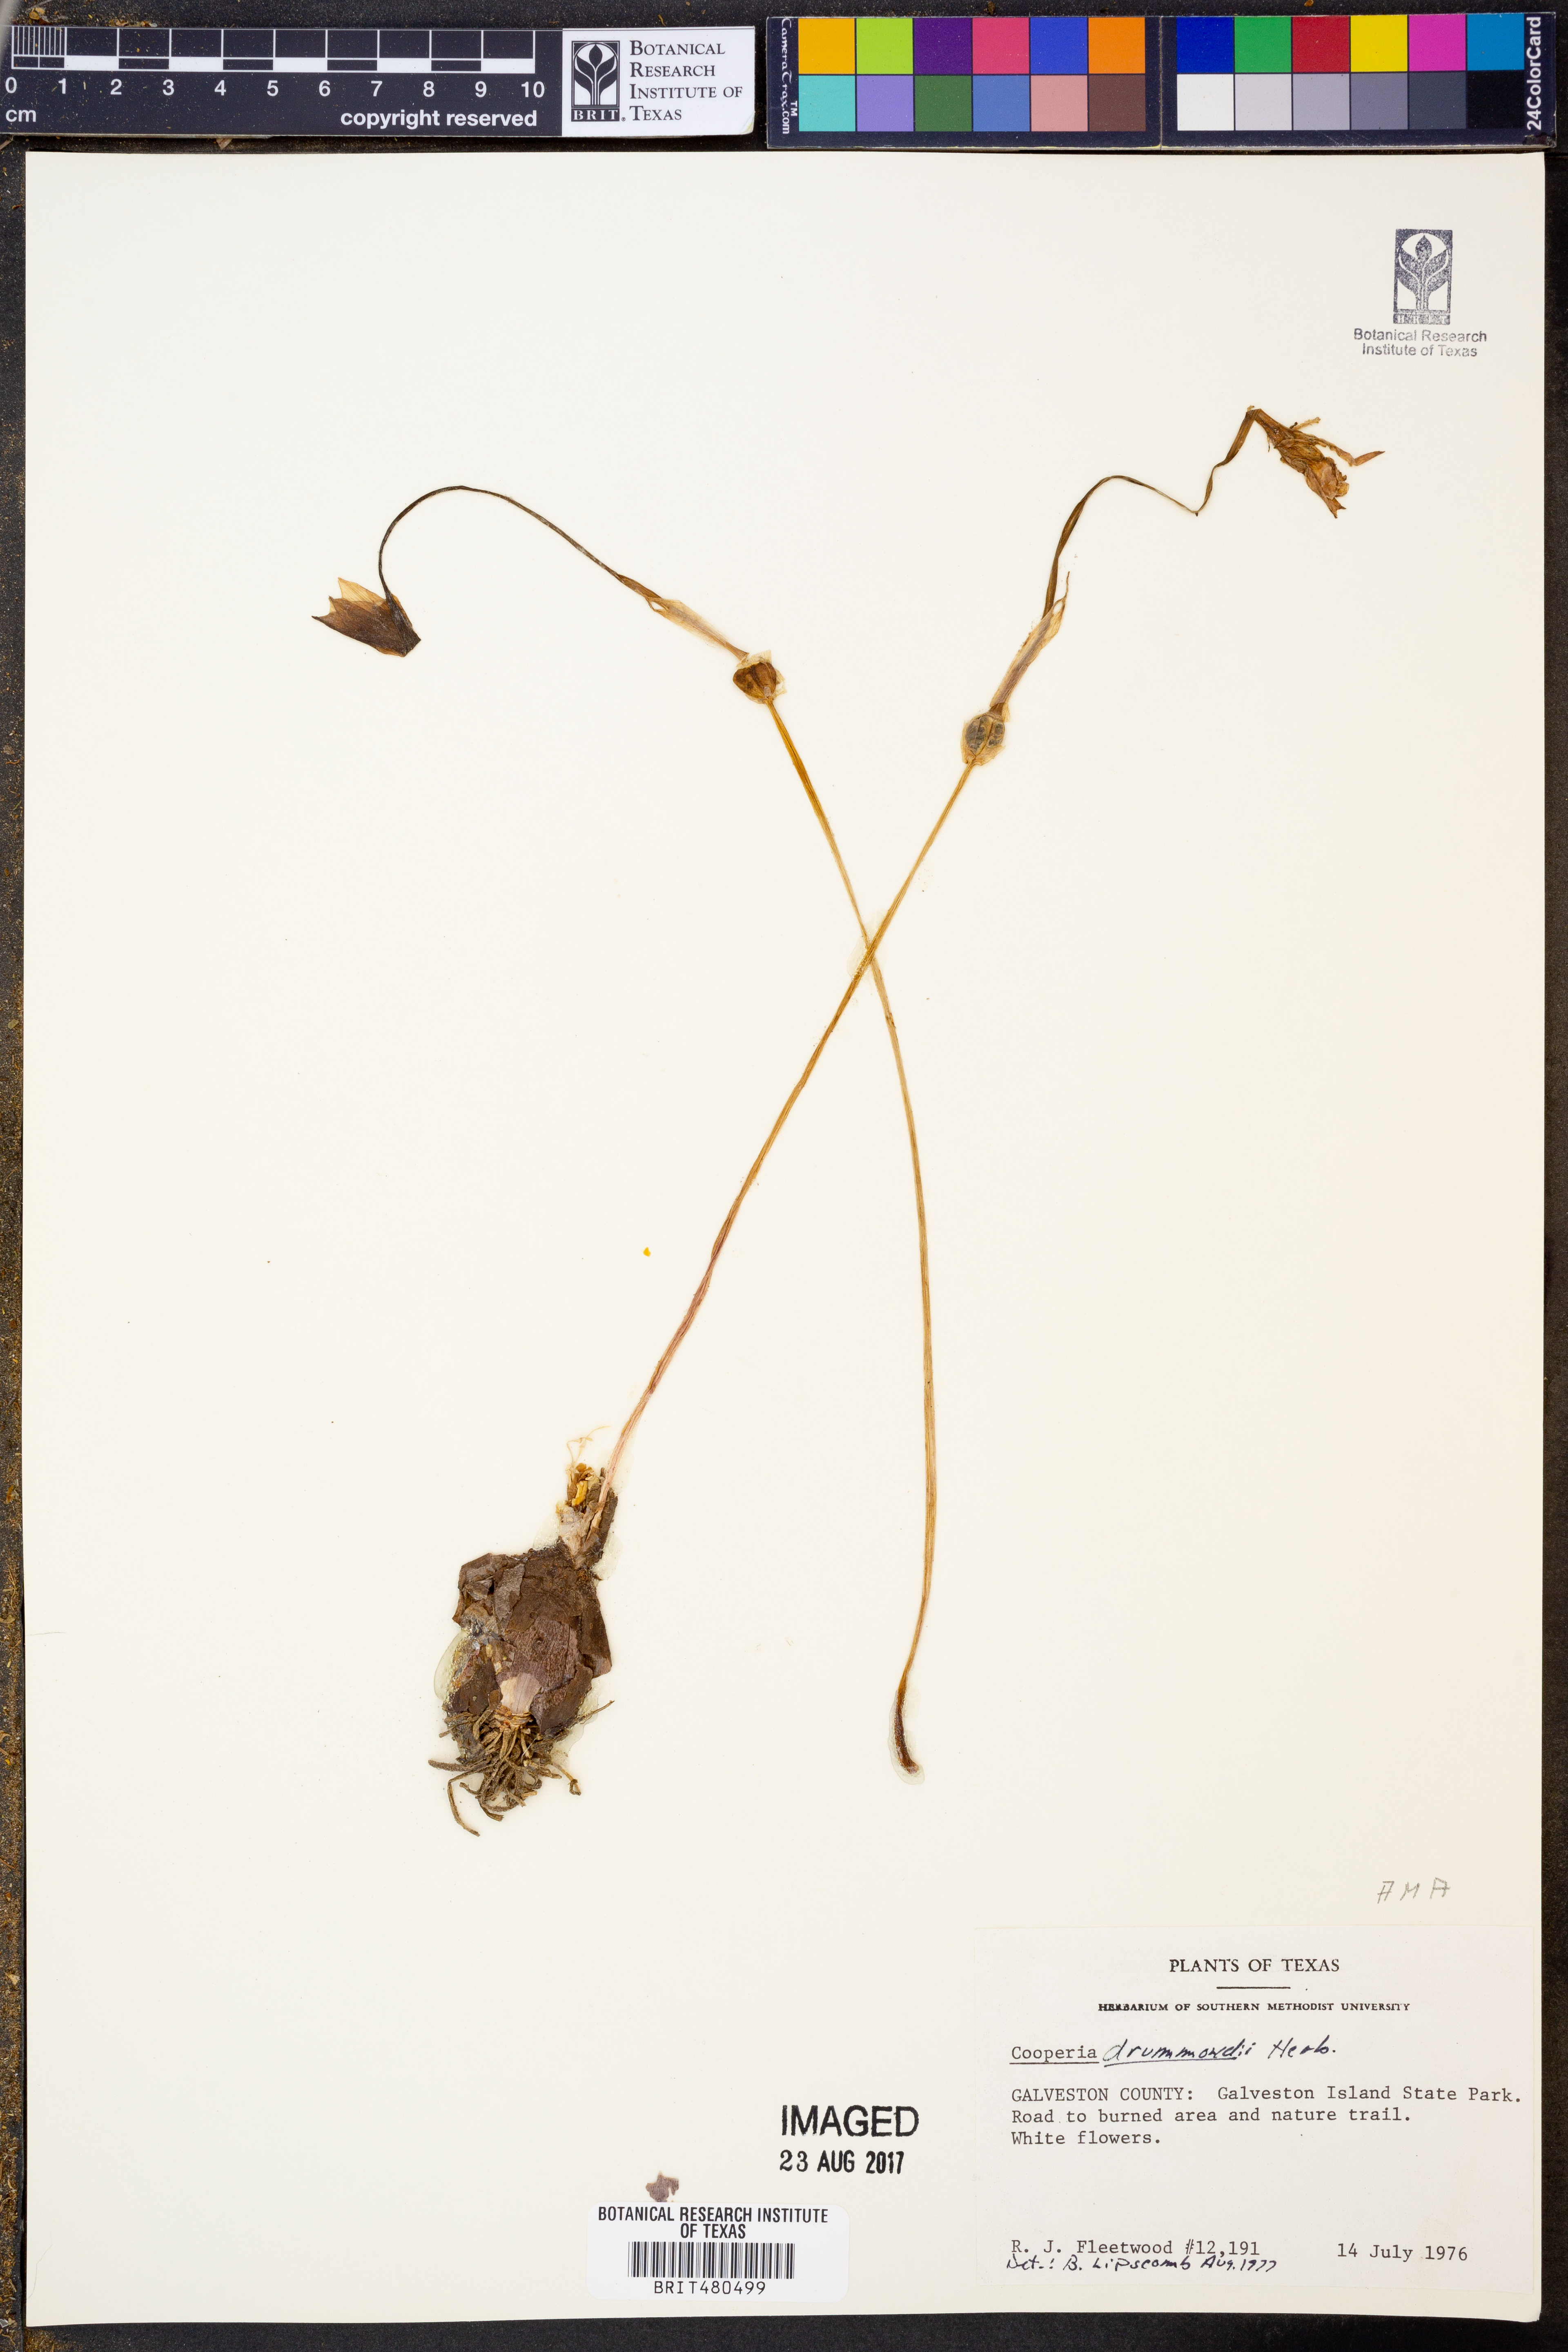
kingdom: Plantae
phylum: Tracheophyta
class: Liliopsida
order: Asparagales
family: Amaryllidaceae
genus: Zephyranthes
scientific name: Zephyranthes chlorosolen
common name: Evening rain-lily
